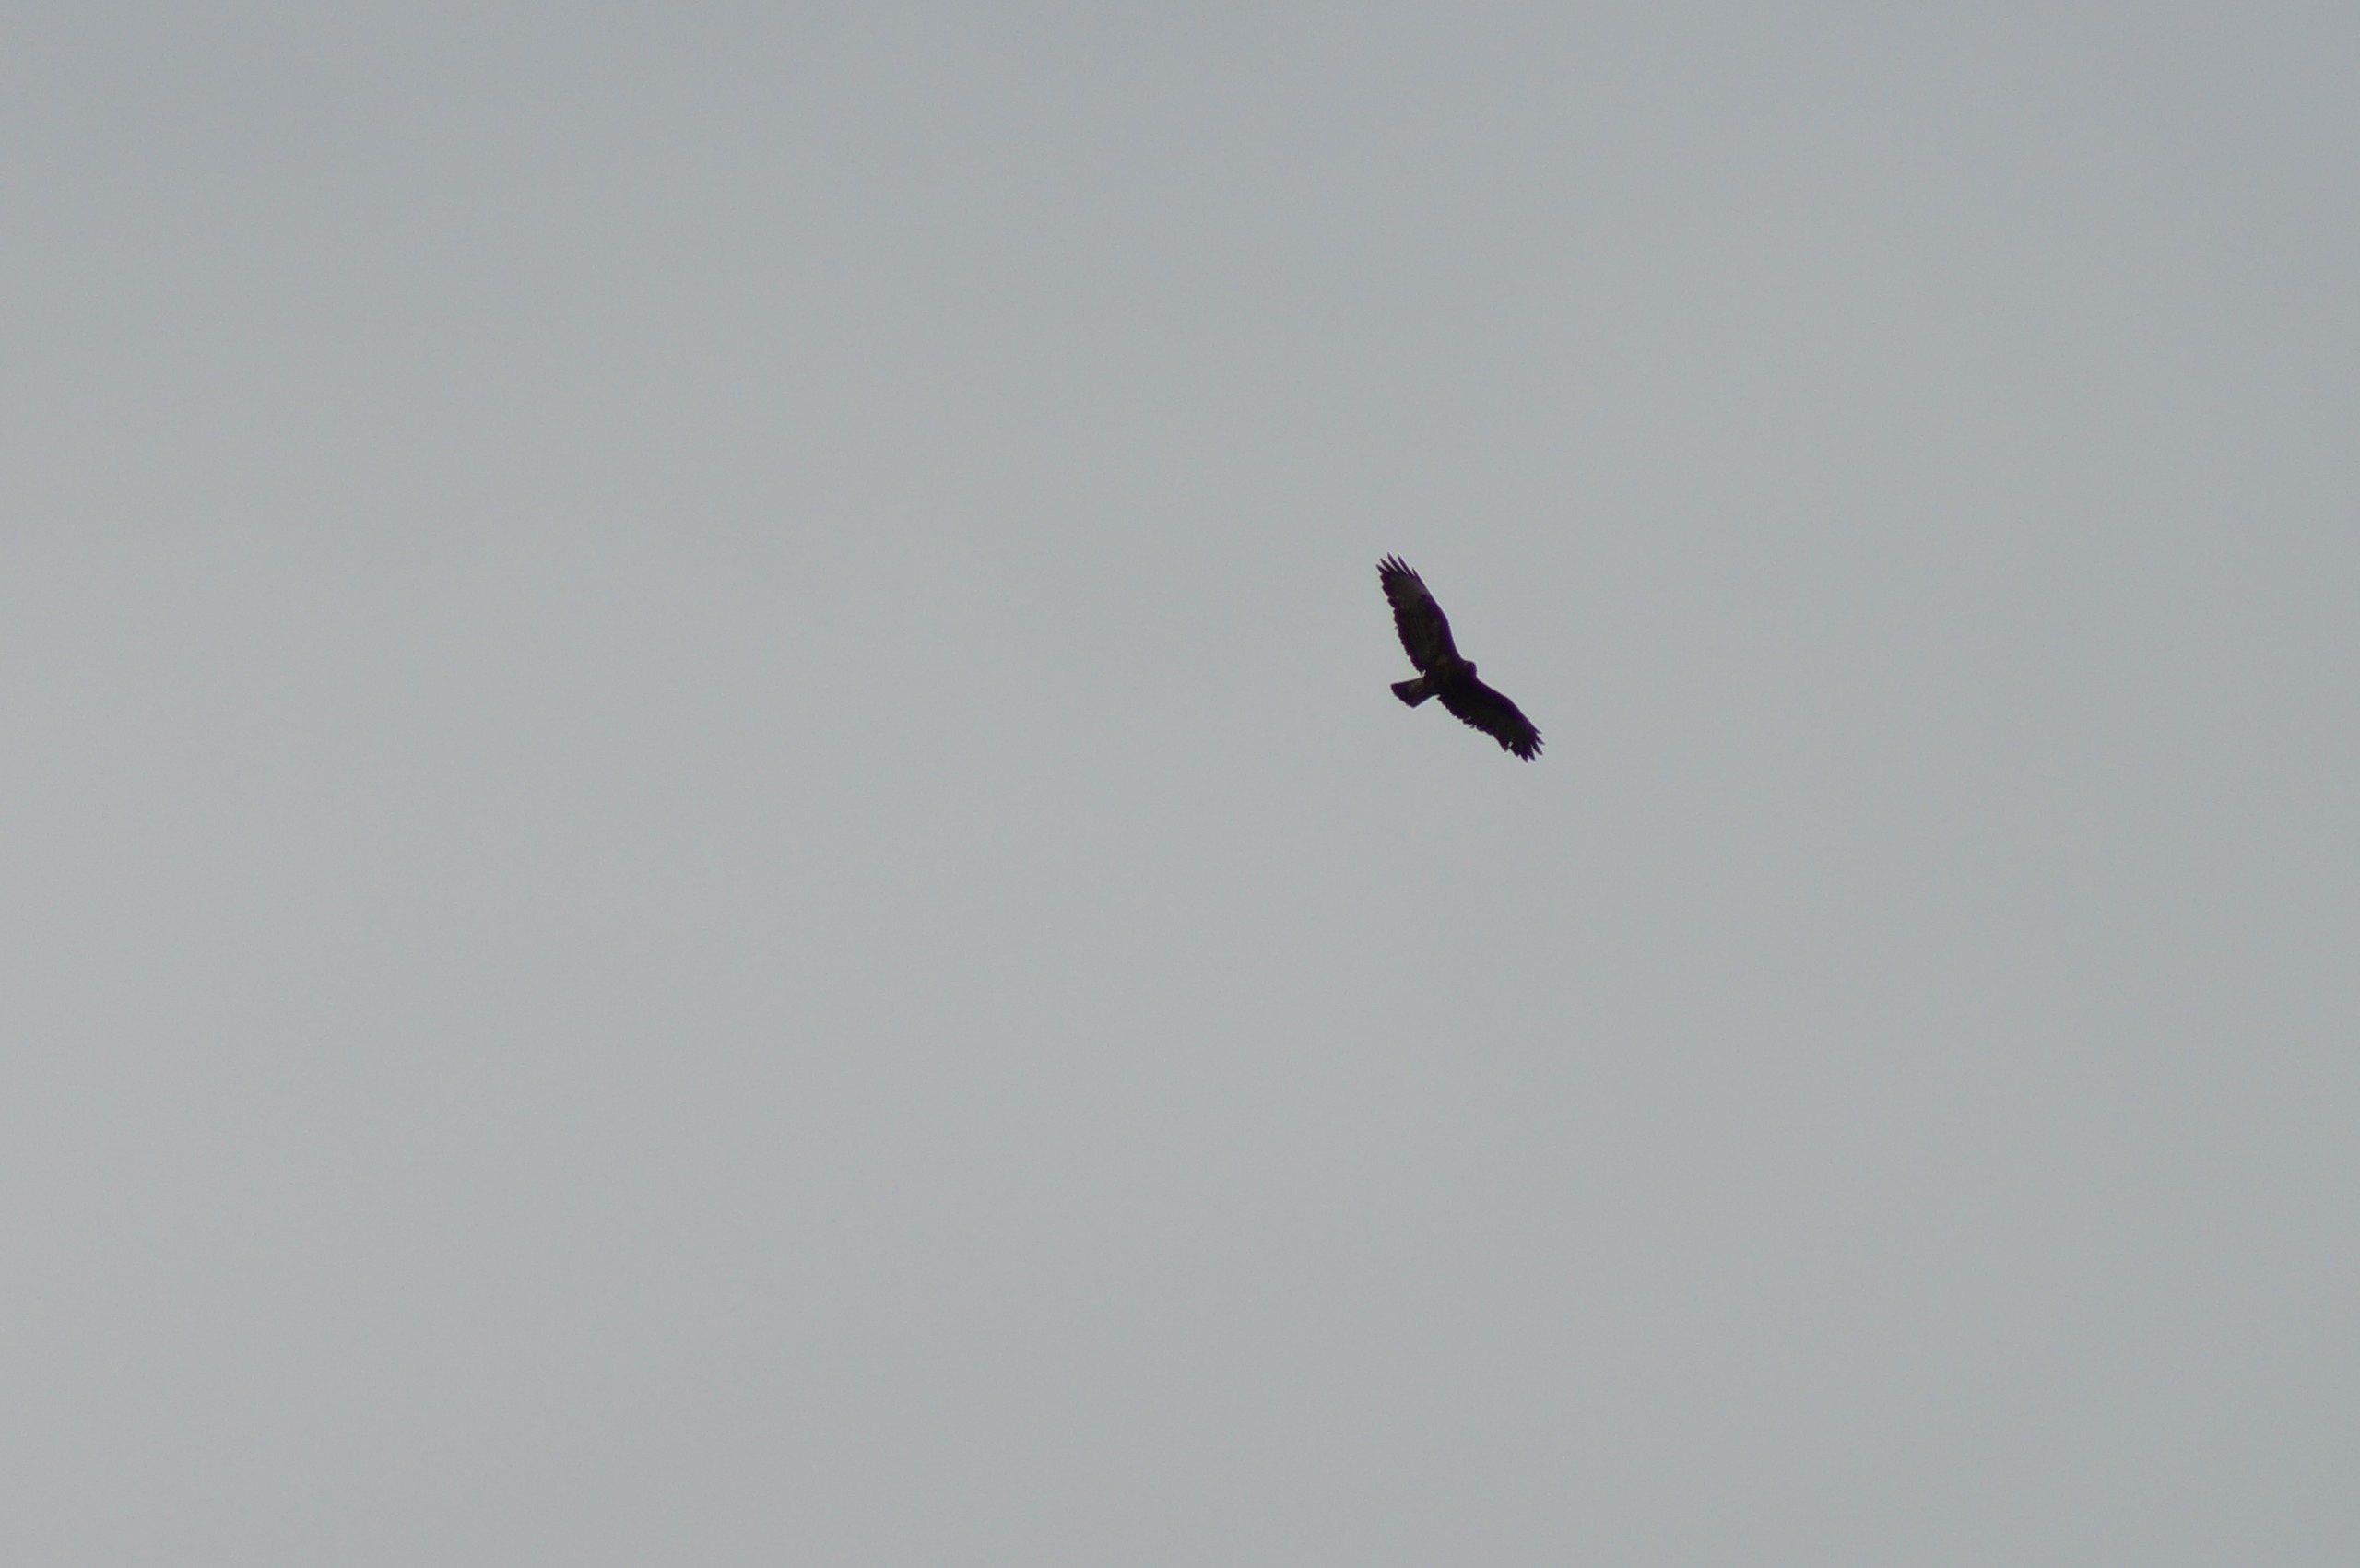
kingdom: Animalia
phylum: Chordata
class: Aves
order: Accipitriformes
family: Accipitridae
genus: Buteo
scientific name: Buteo buteo
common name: Musvåge
